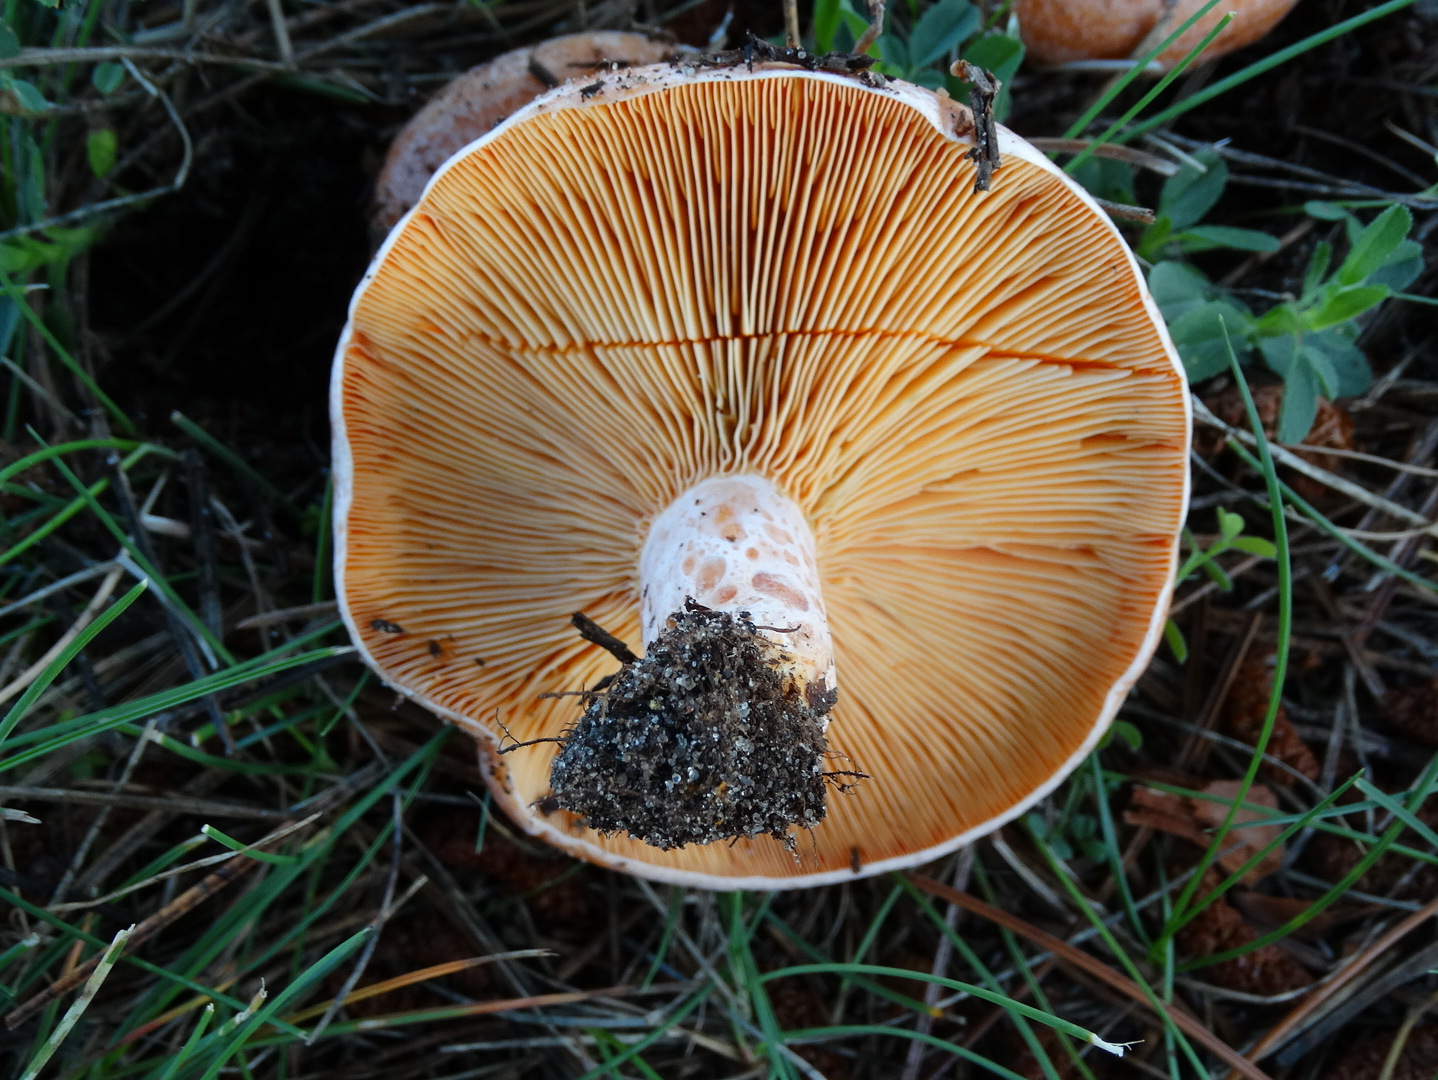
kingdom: Fungi
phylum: Basidiomycota
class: Agaricomycetes
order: Russulales
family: Russulaceae
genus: Lactarius
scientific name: Lactarius deliciosus
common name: velsmagende mælkehat
